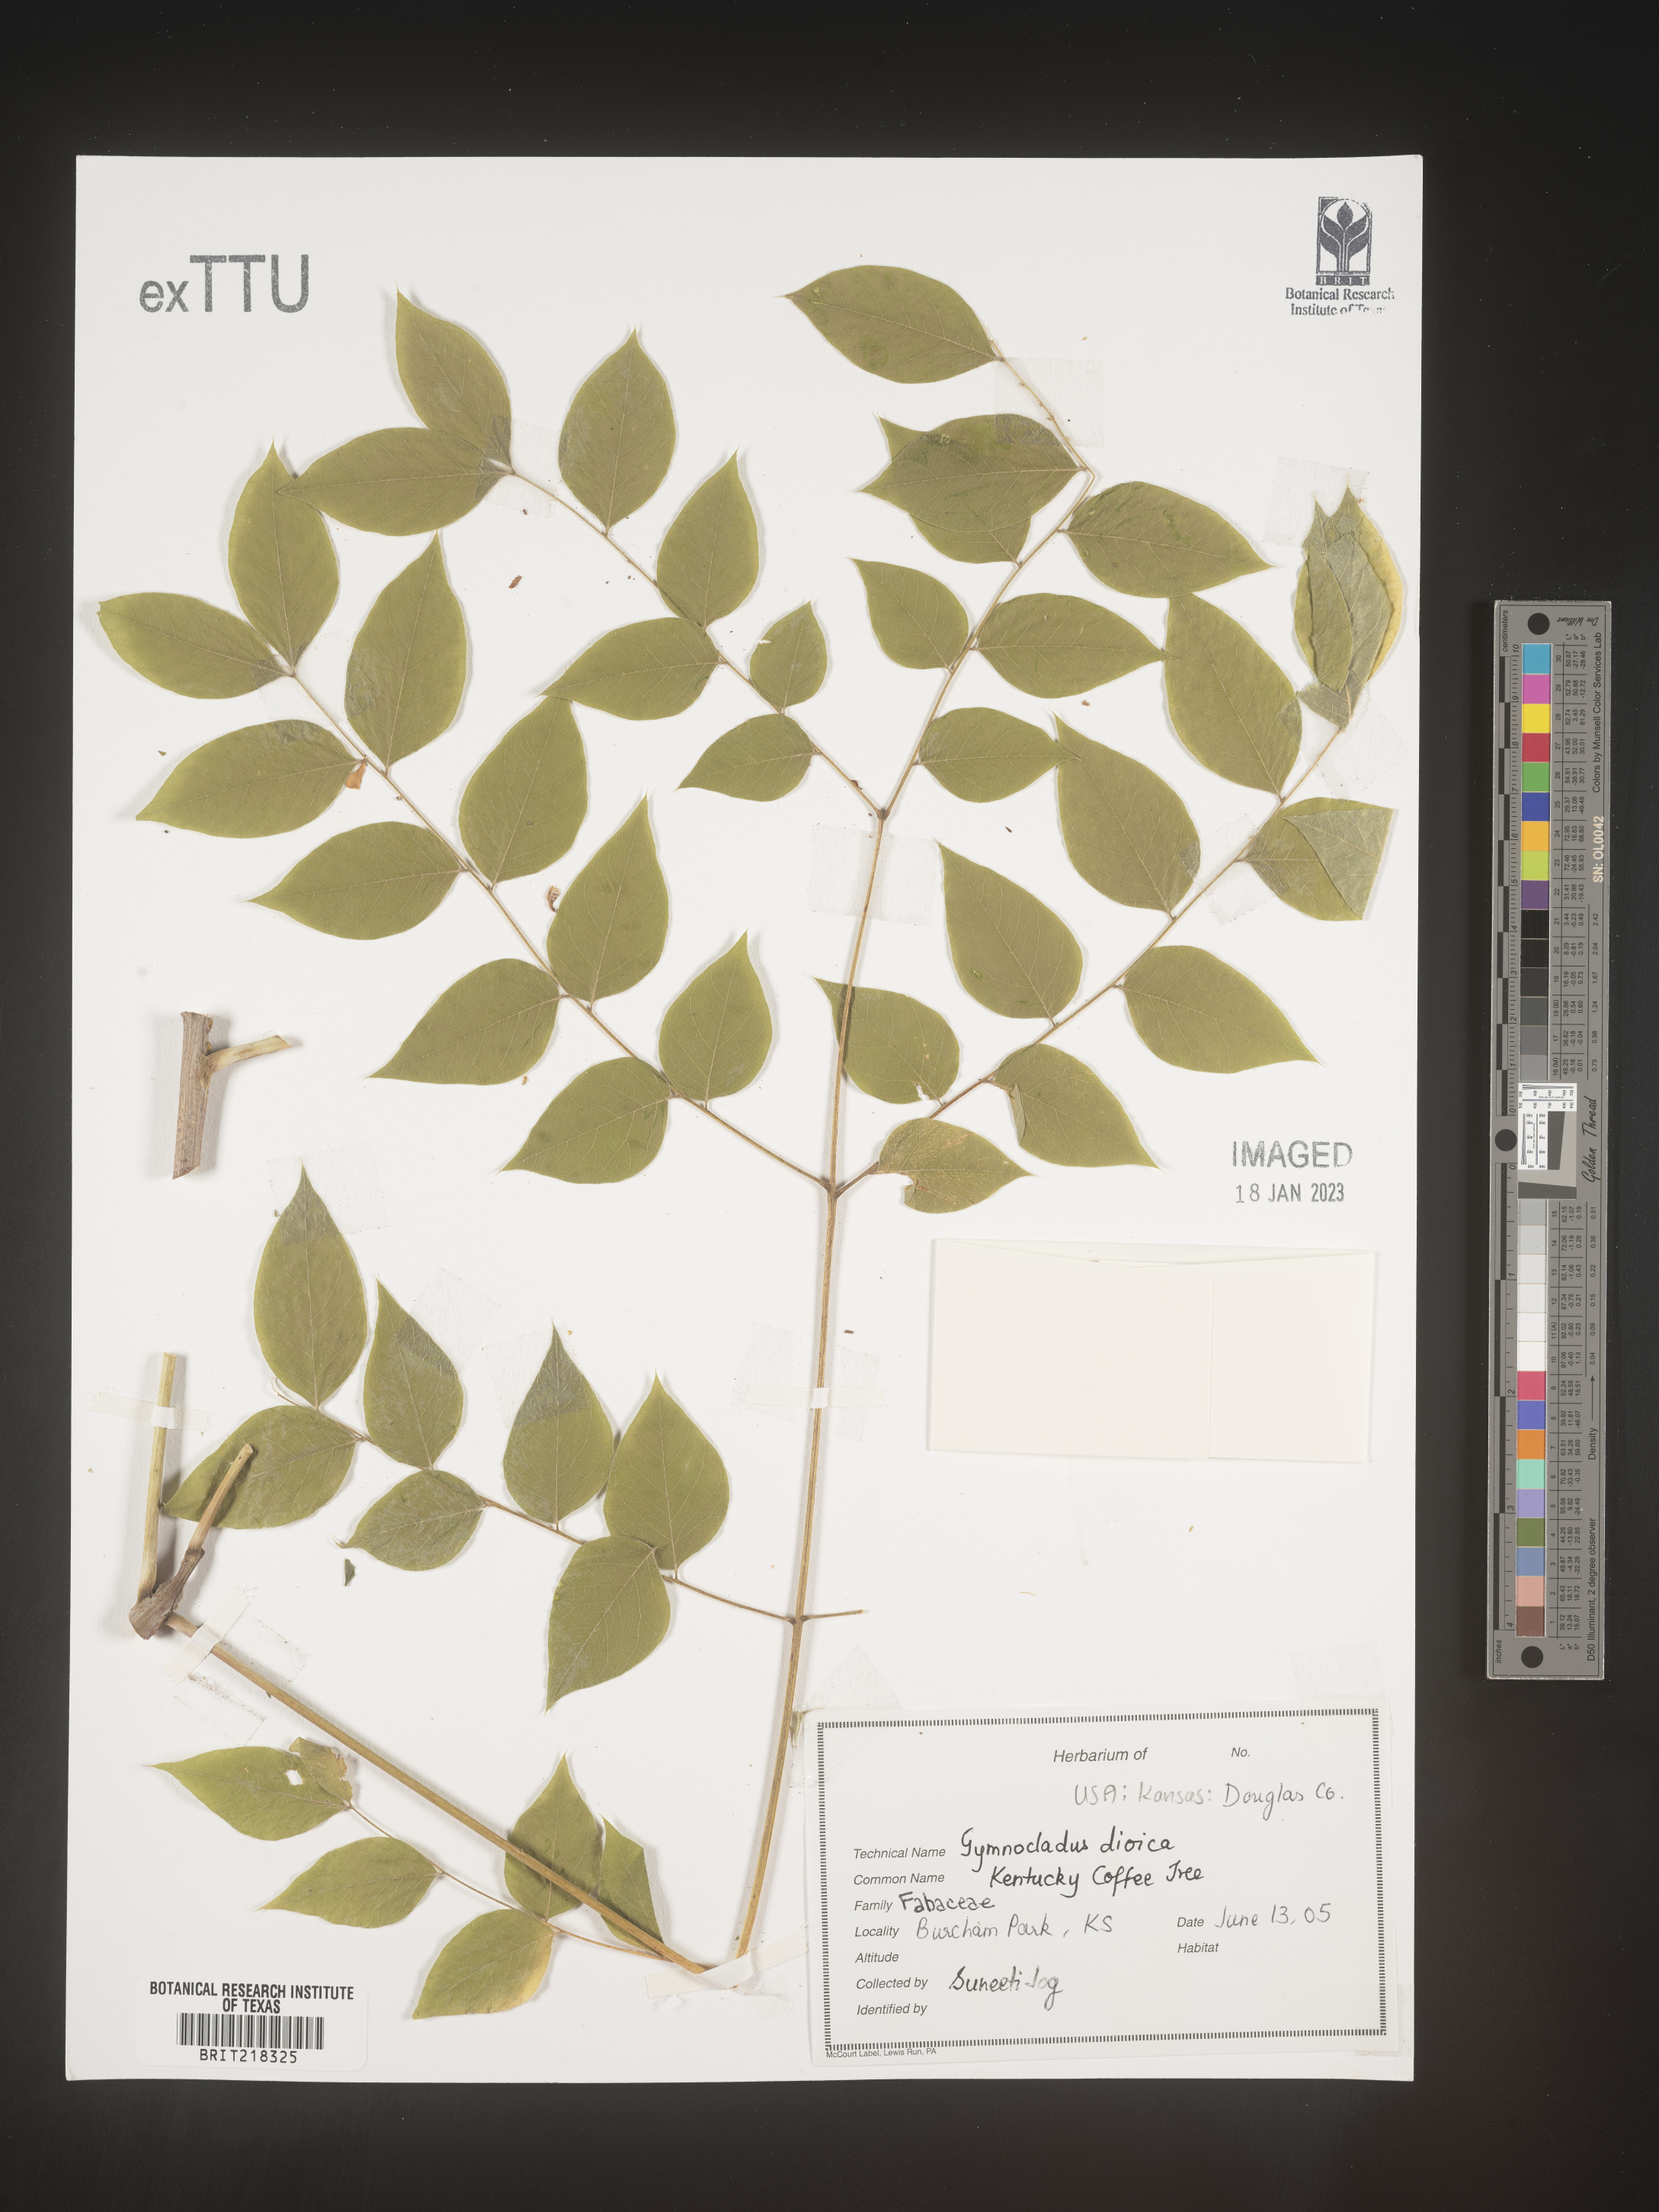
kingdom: Plantae
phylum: Tracheophyta
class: Magnoliopsida
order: Fabales
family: Fabaceae
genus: Gymnocladus
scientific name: Gymnocladus dioicus
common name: Kentucky coffee-tree
